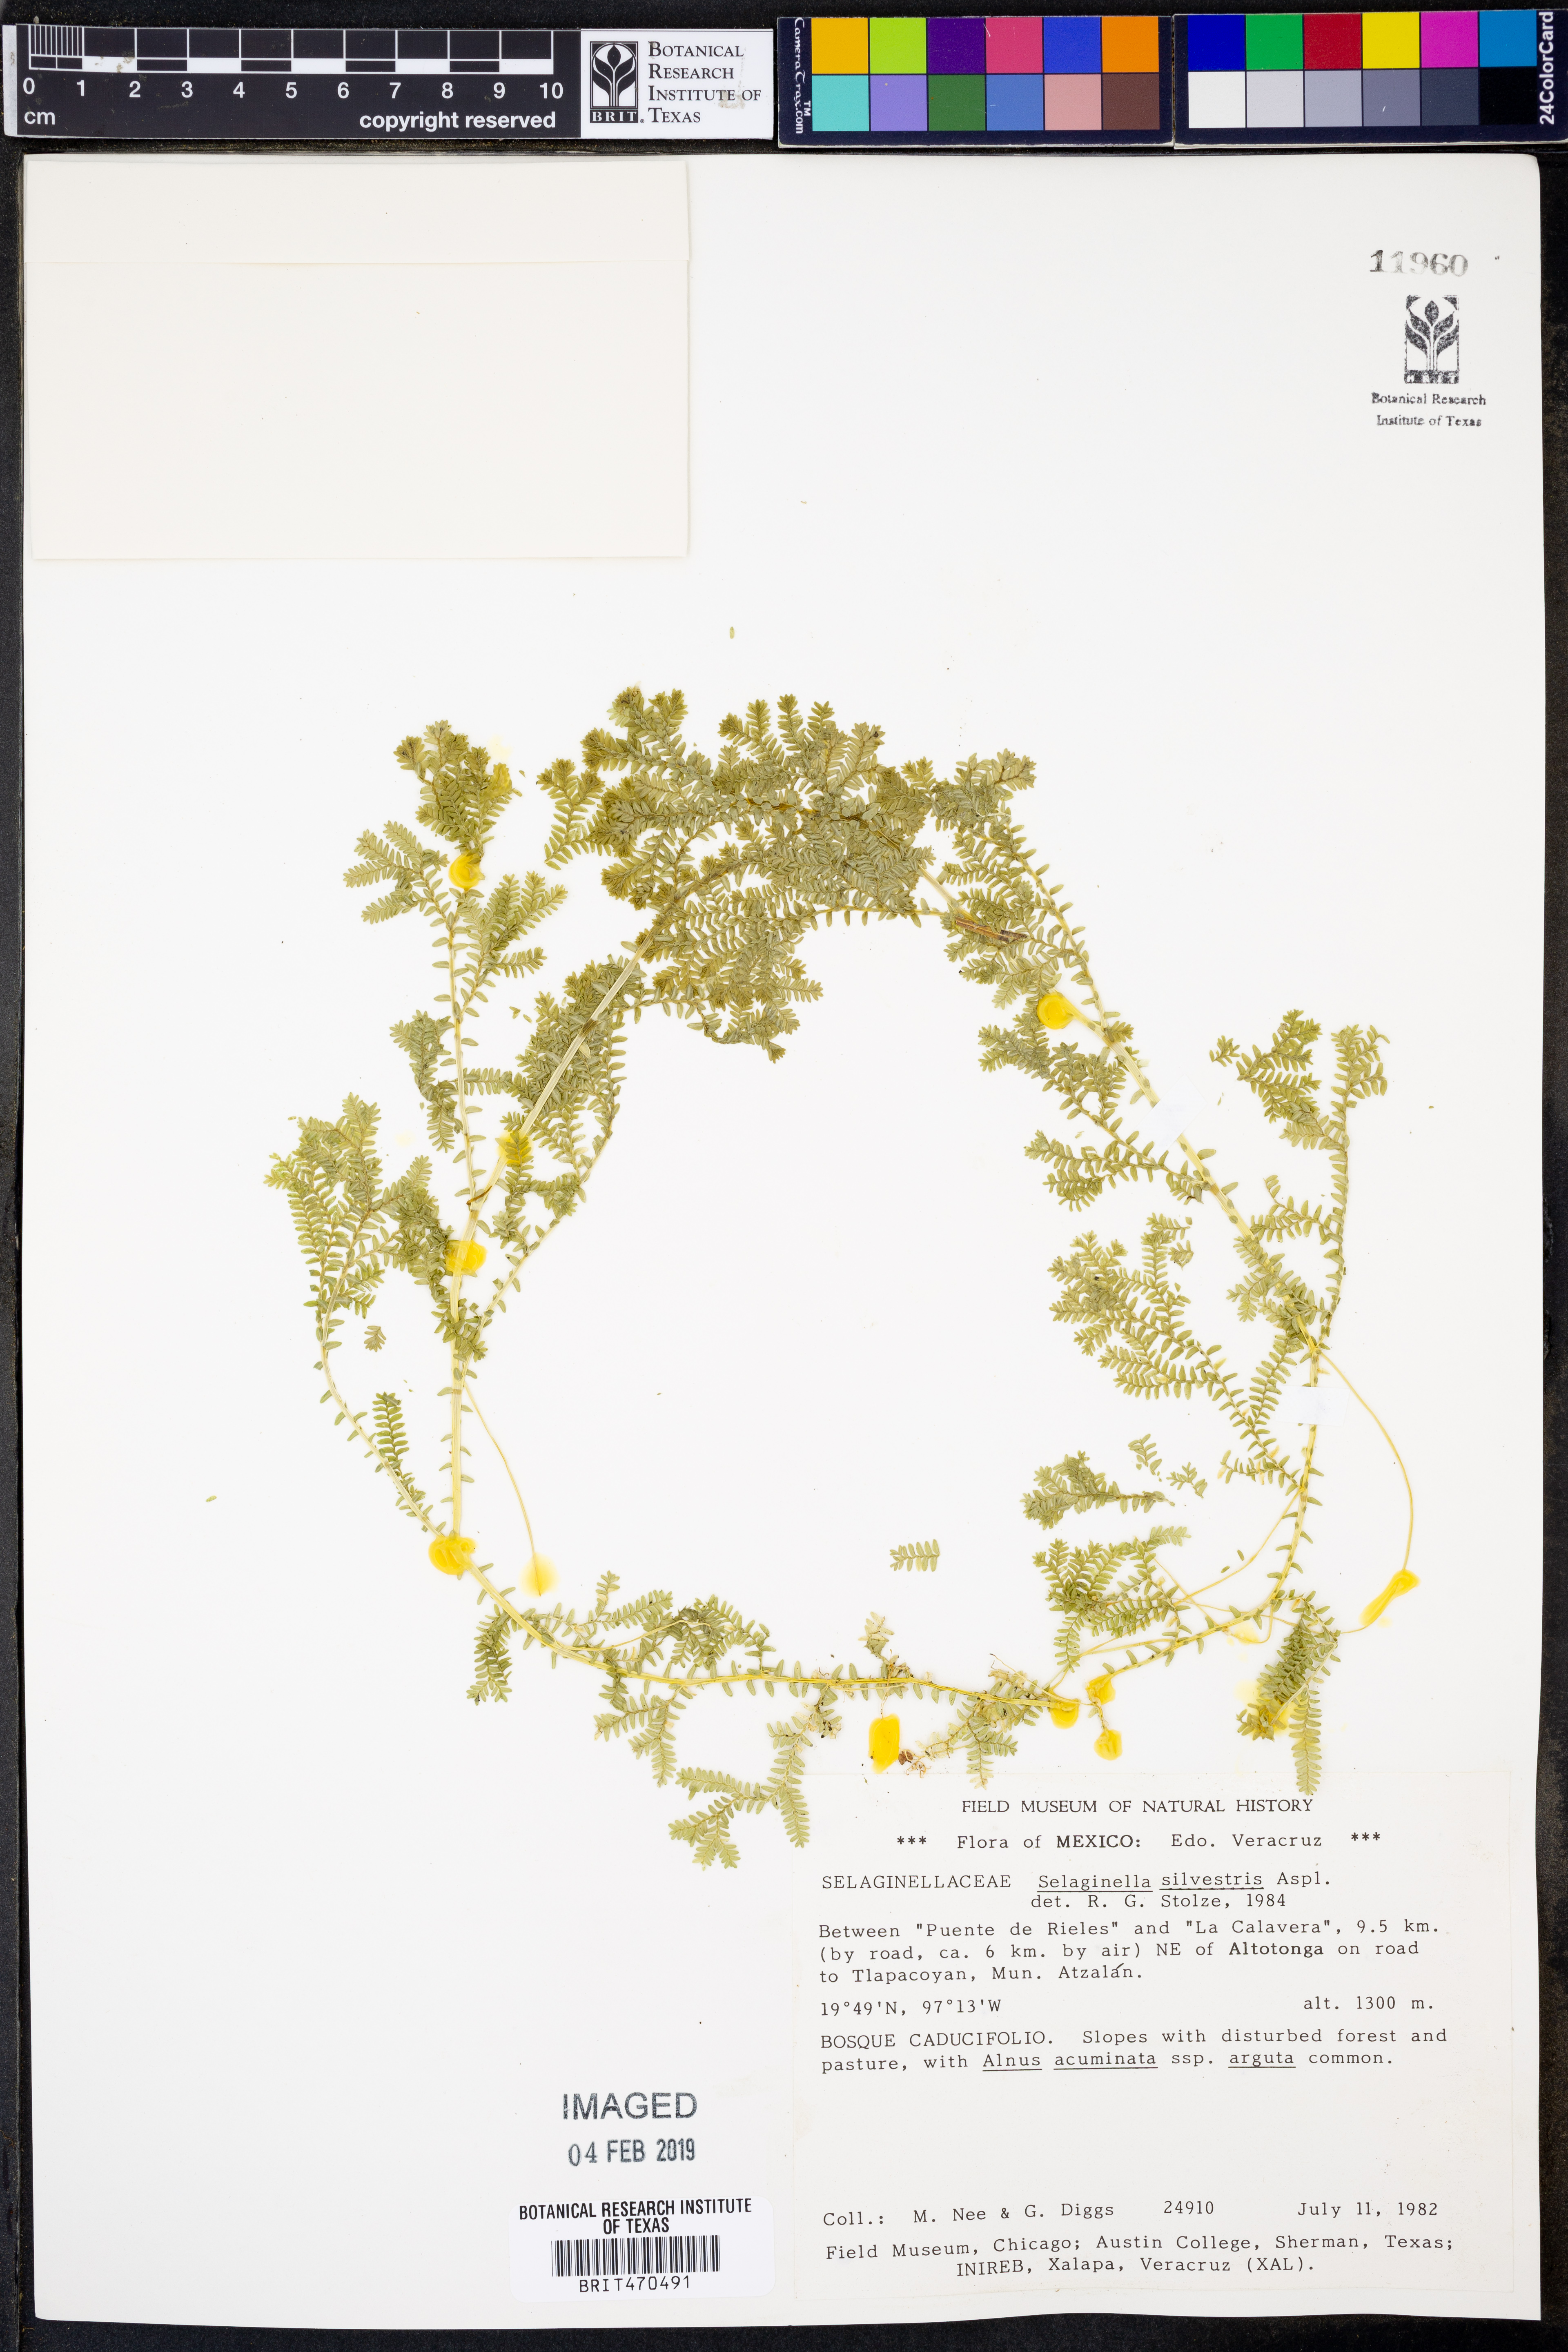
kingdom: Plantae
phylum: Tracheophyta
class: Lycopodiopsida
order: Selaginellales
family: Selaginellaceae
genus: Selaginella
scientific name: Selaginella silvestris
